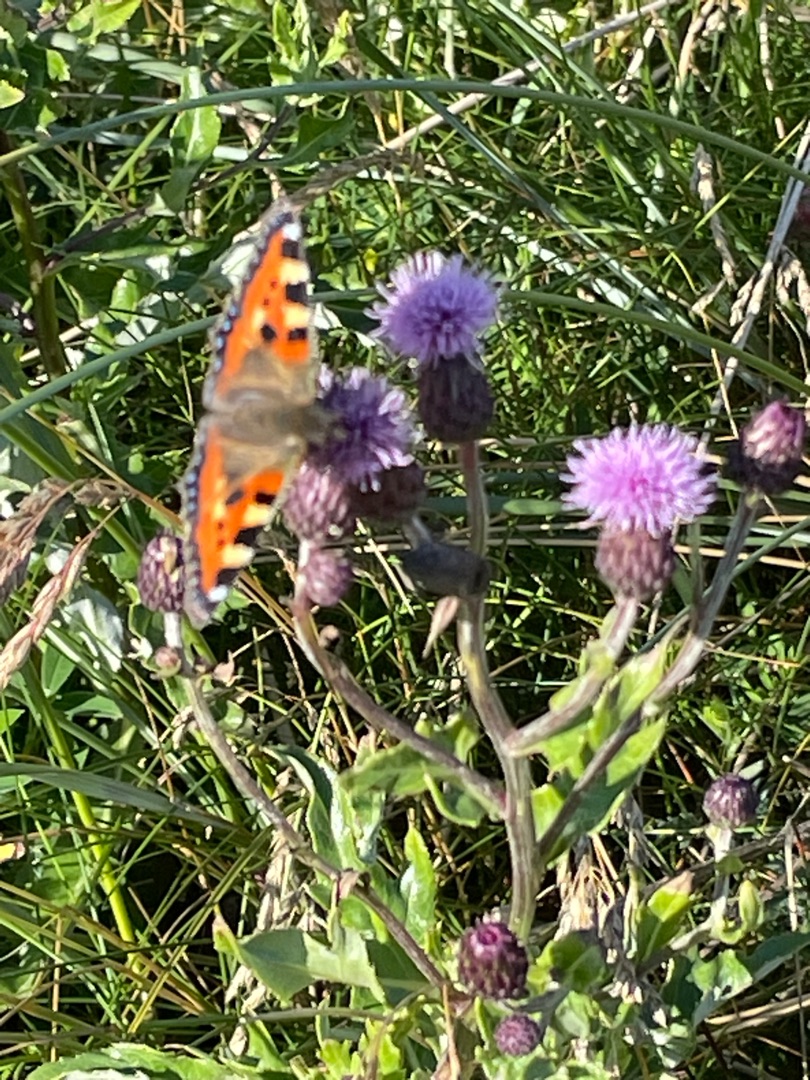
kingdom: Animalia
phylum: Arthropoda
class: Insecta
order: Lepidoptera
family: Nymphalidae
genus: Aglais
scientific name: Aglais urticae
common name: Nældens takvinge
